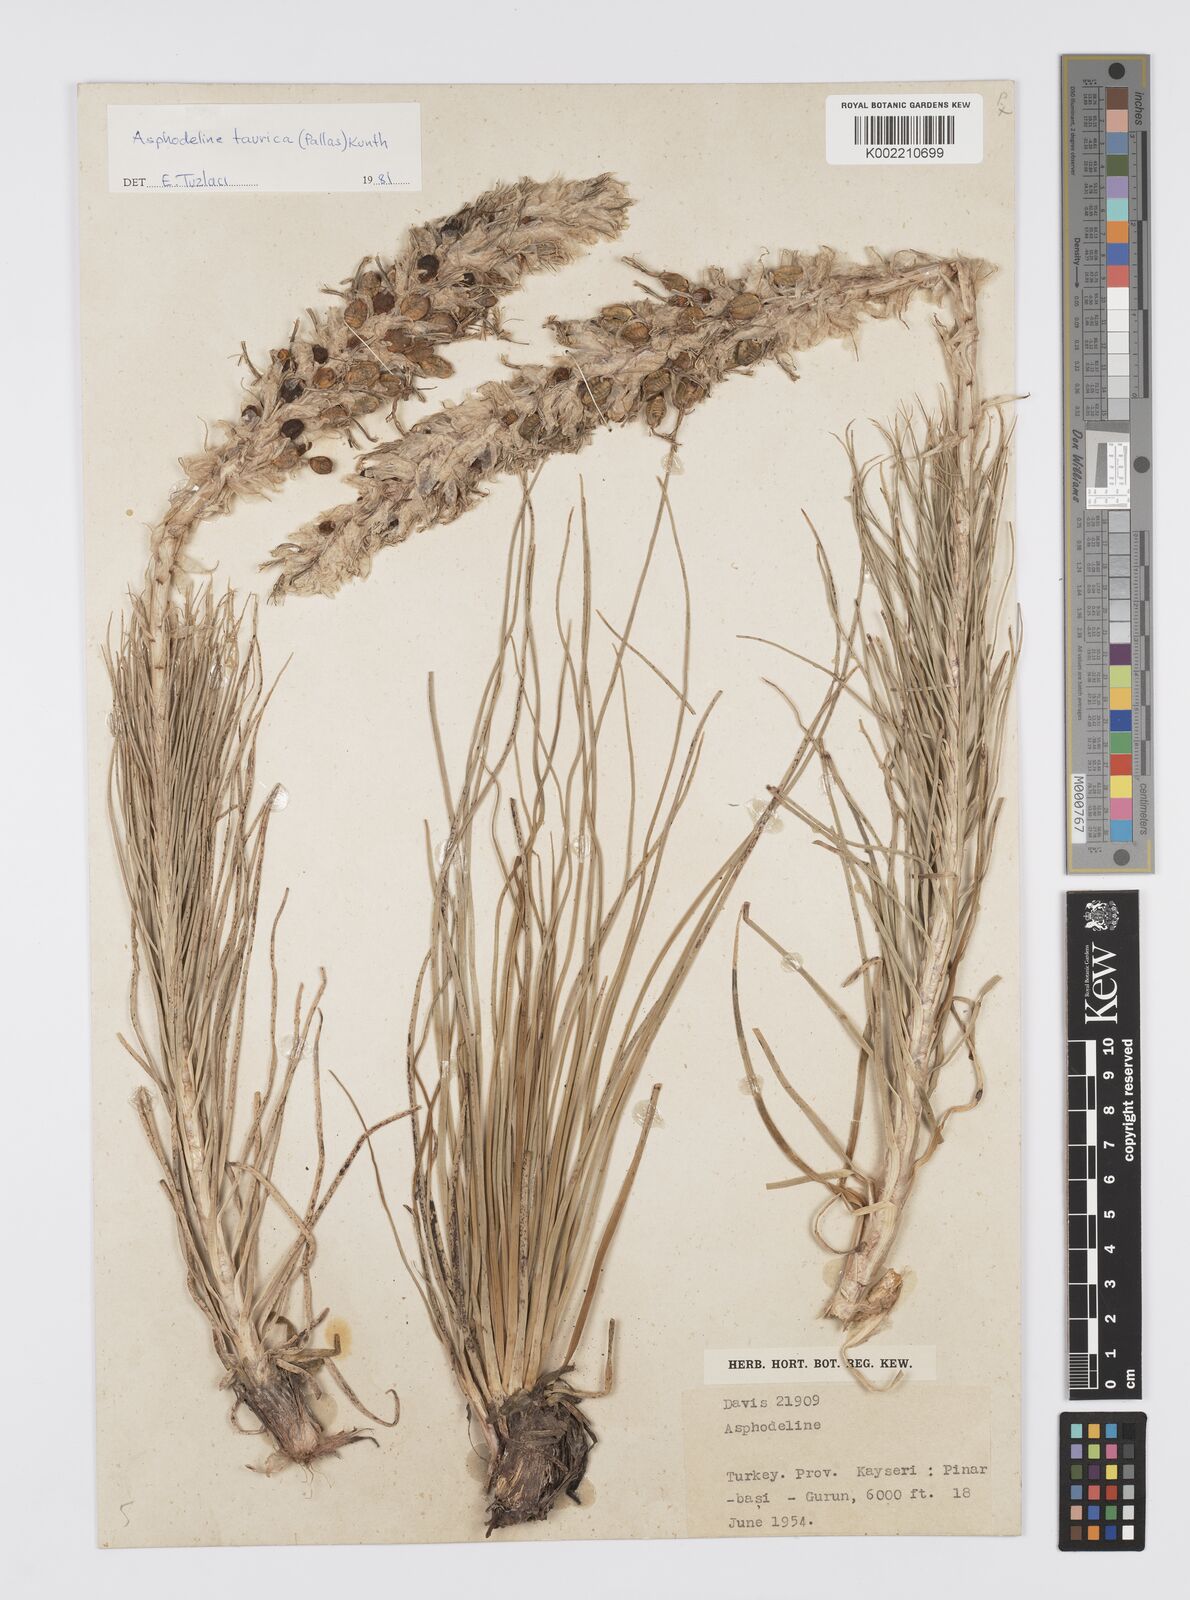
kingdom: Plantae
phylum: Tracheophyta
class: Liliopsida
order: Asparagales
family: Asphodelaceae
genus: Asphodeline
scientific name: Asphodeline taurica
